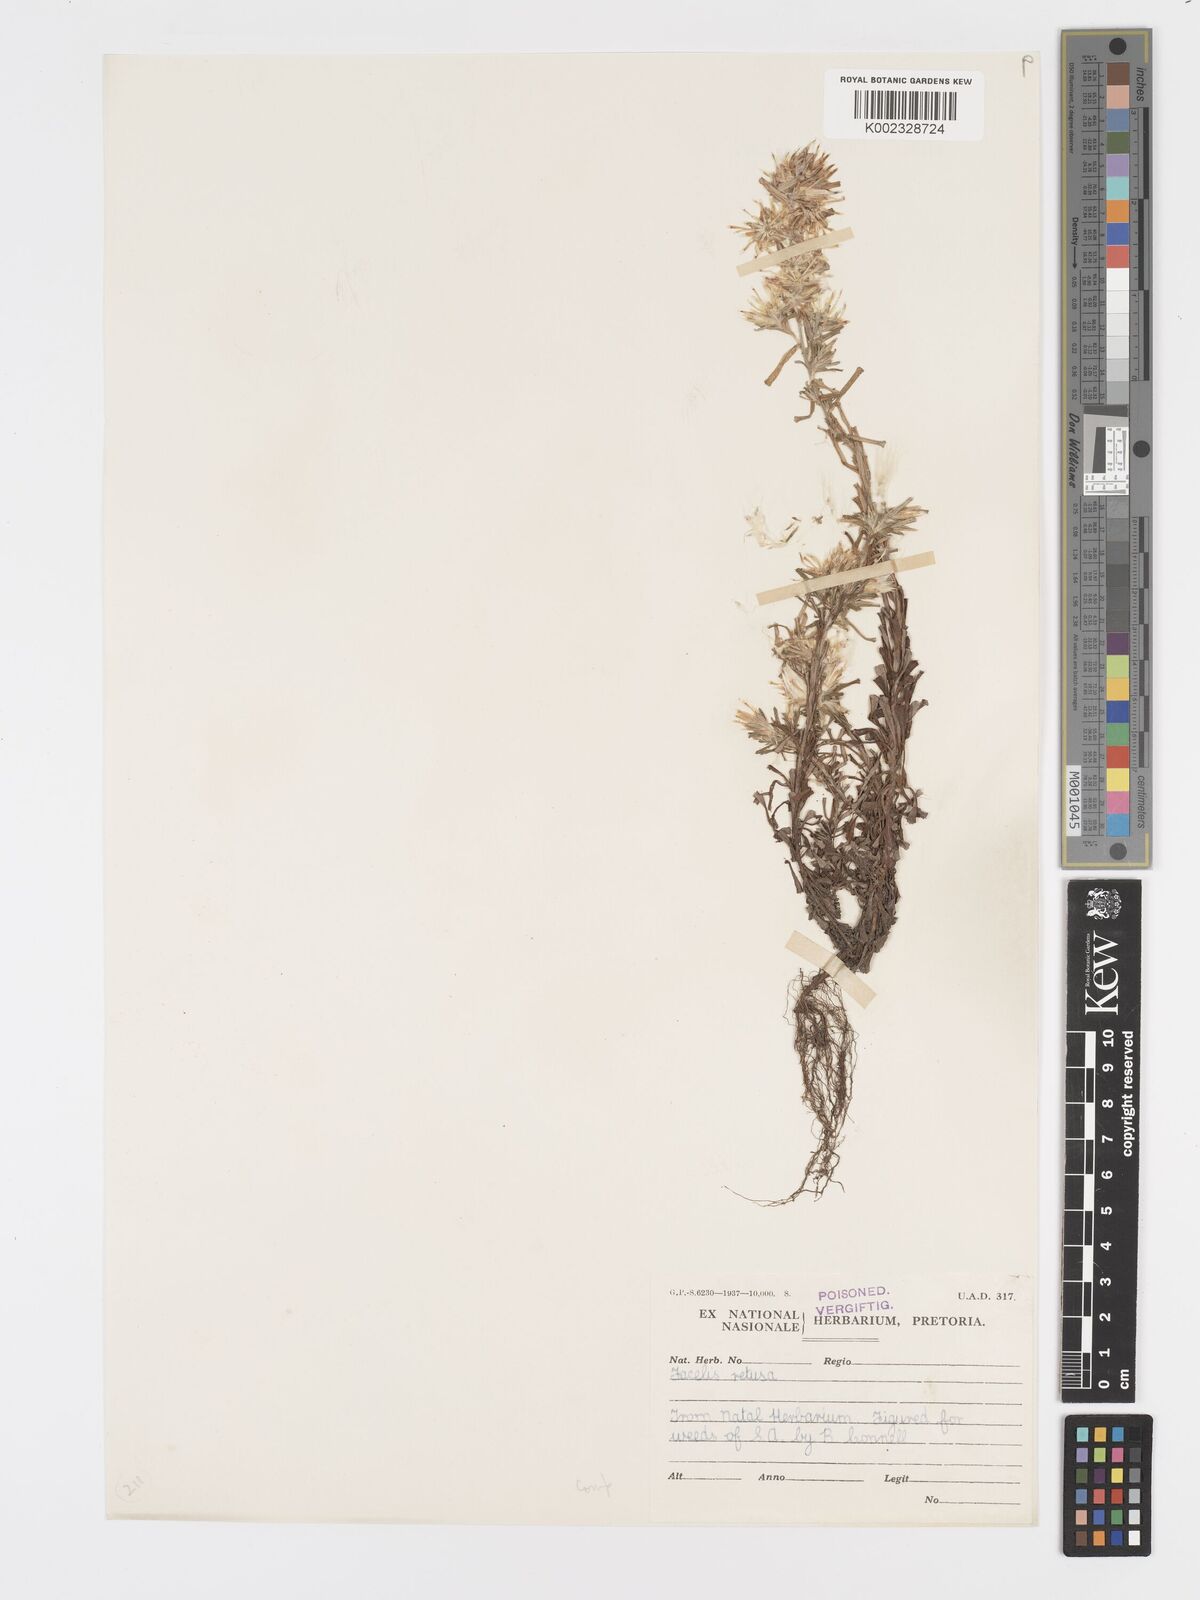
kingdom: Plantae
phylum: Tracheophyta
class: Magnoliopsida
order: Asterales
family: Asteraceae
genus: Facelis
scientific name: Facelis retusa
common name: Annual trampweed
